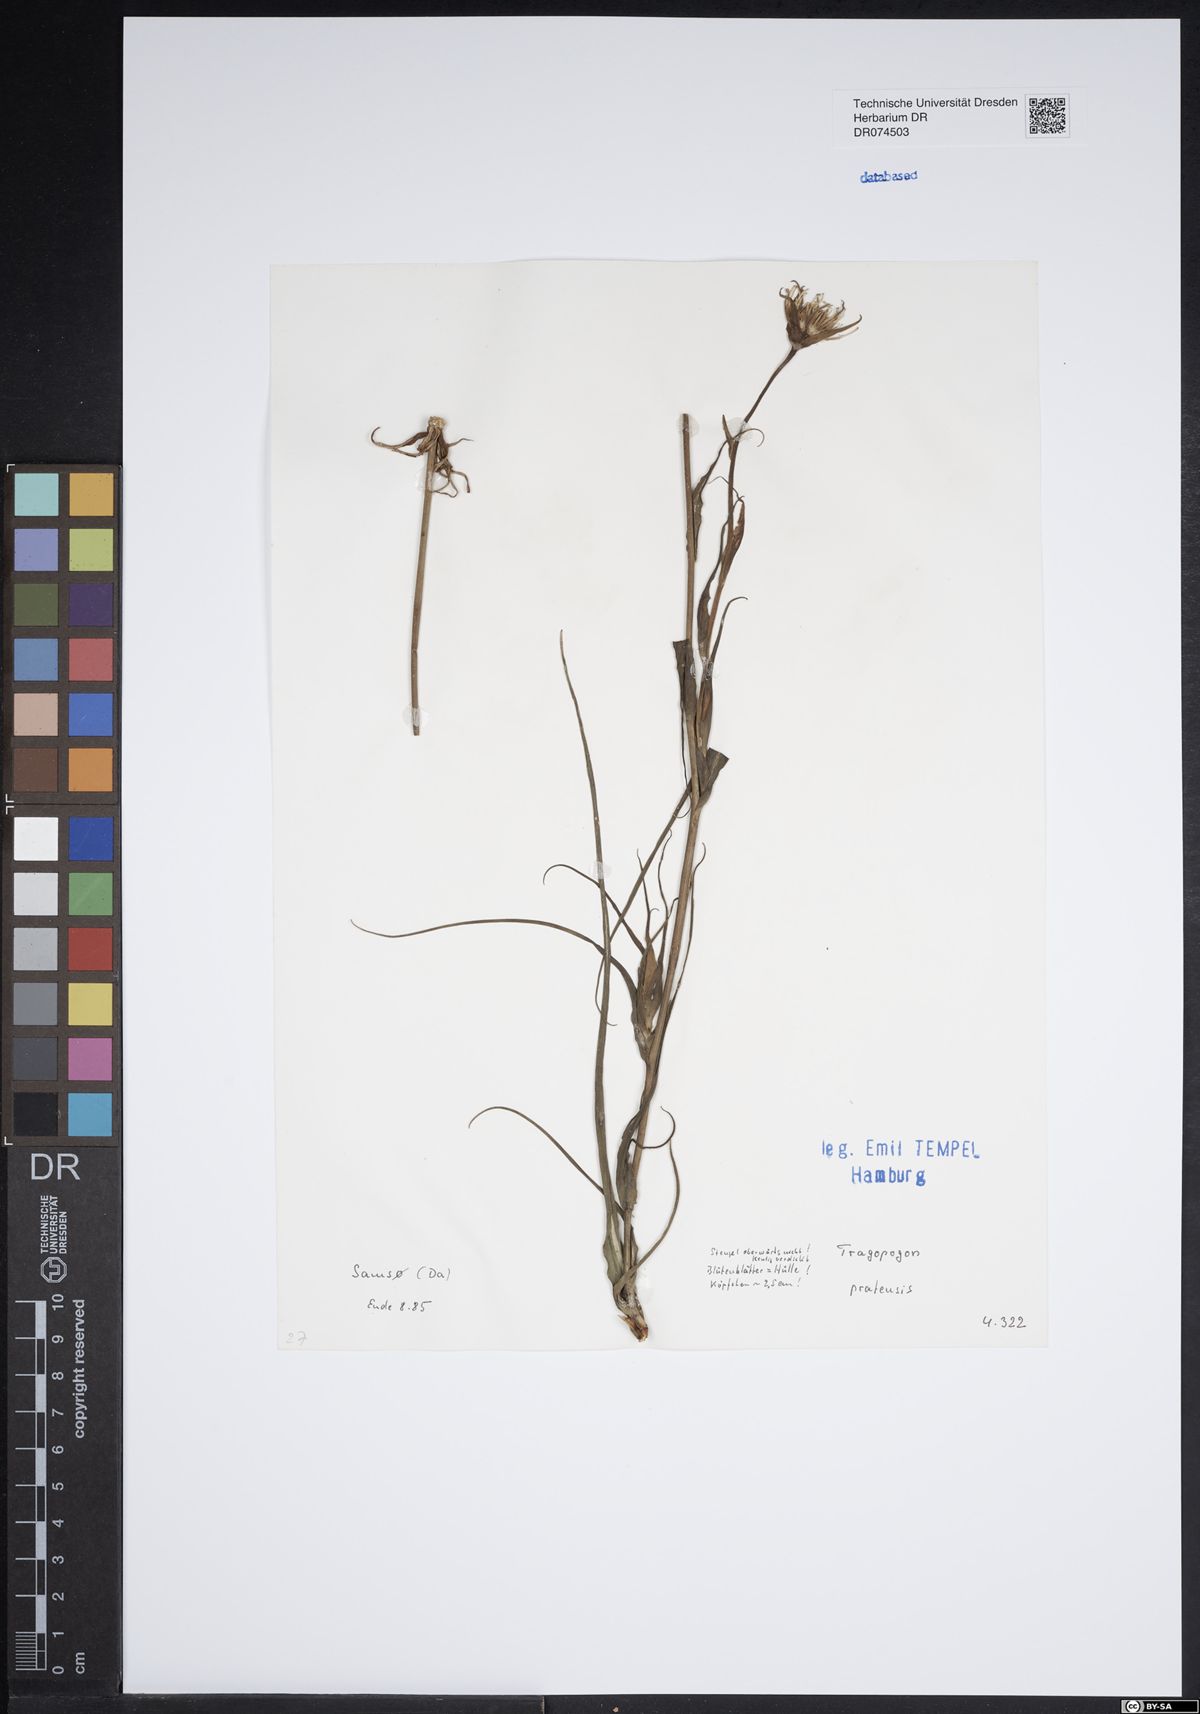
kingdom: Plantae
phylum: Tracheophyta
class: Magnoliopsida
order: Asterales
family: Asteraceae
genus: Tragopogon
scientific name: Tragopogon pratensis
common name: Goat's-beard
